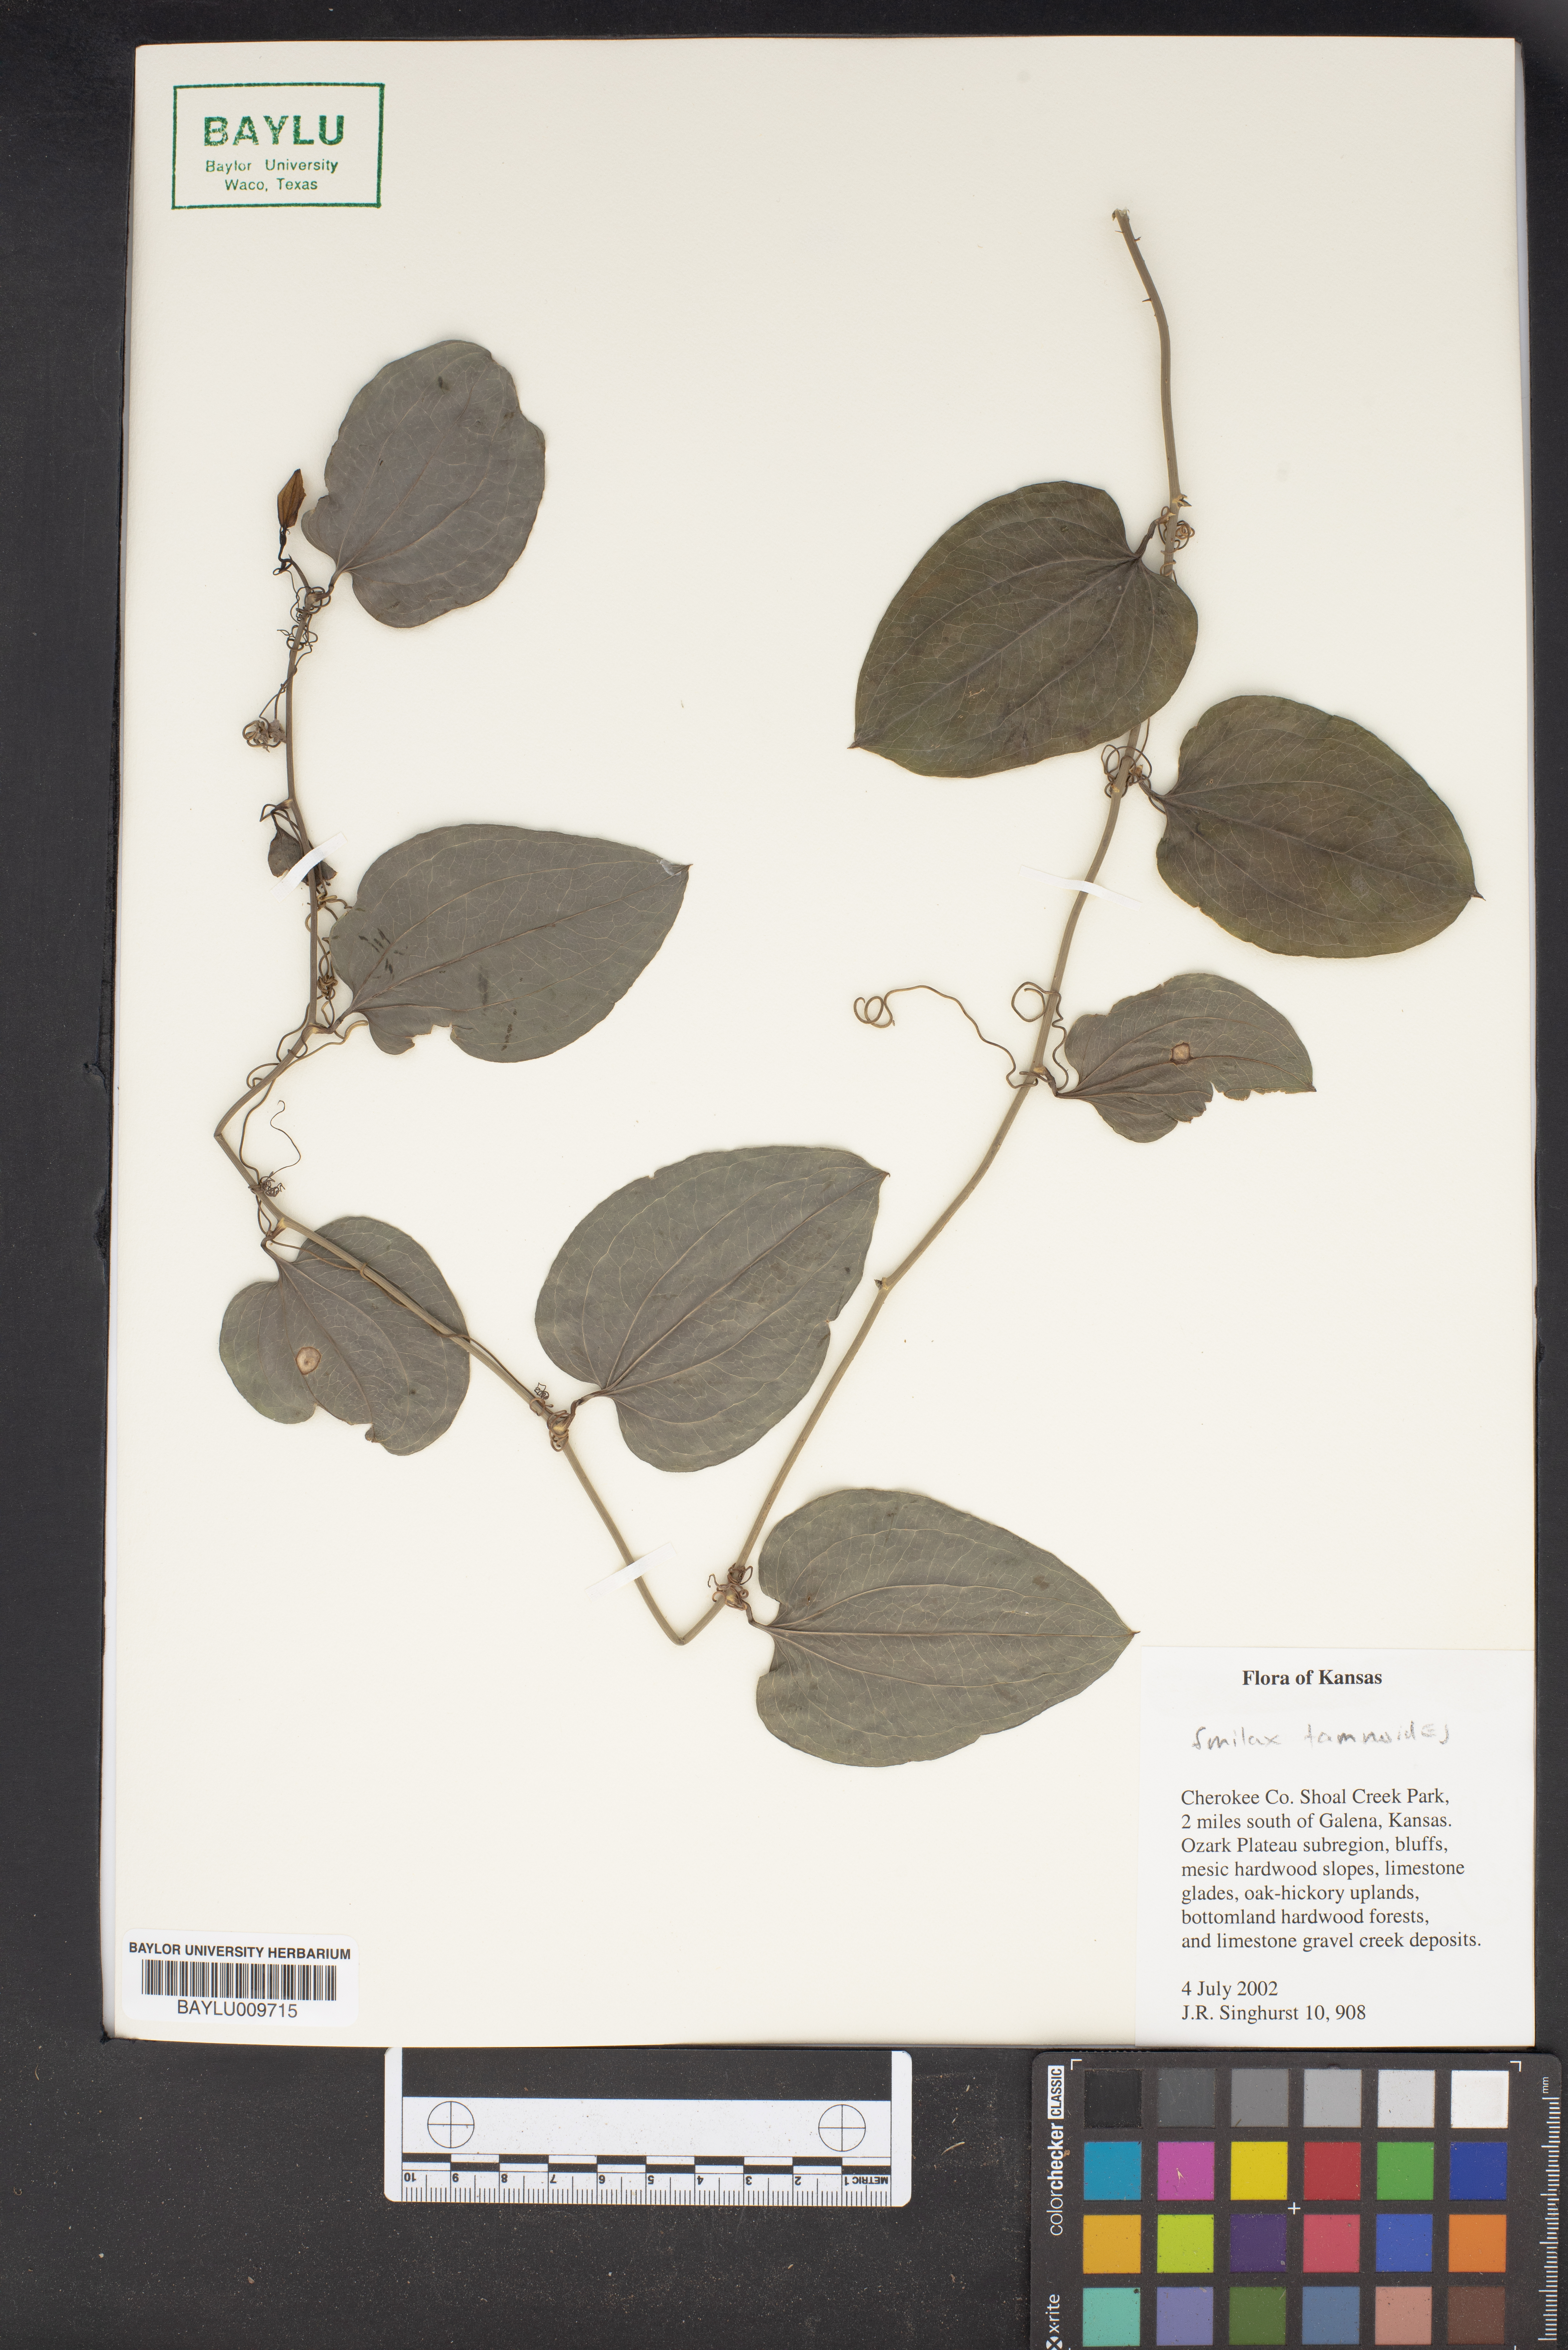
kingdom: Plantae
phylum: Tracheophyta
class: Liliopsida
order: Liliales
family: Smilacaceae
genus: Smilax
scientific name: Smilax tamnoides
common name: Hellfetter
